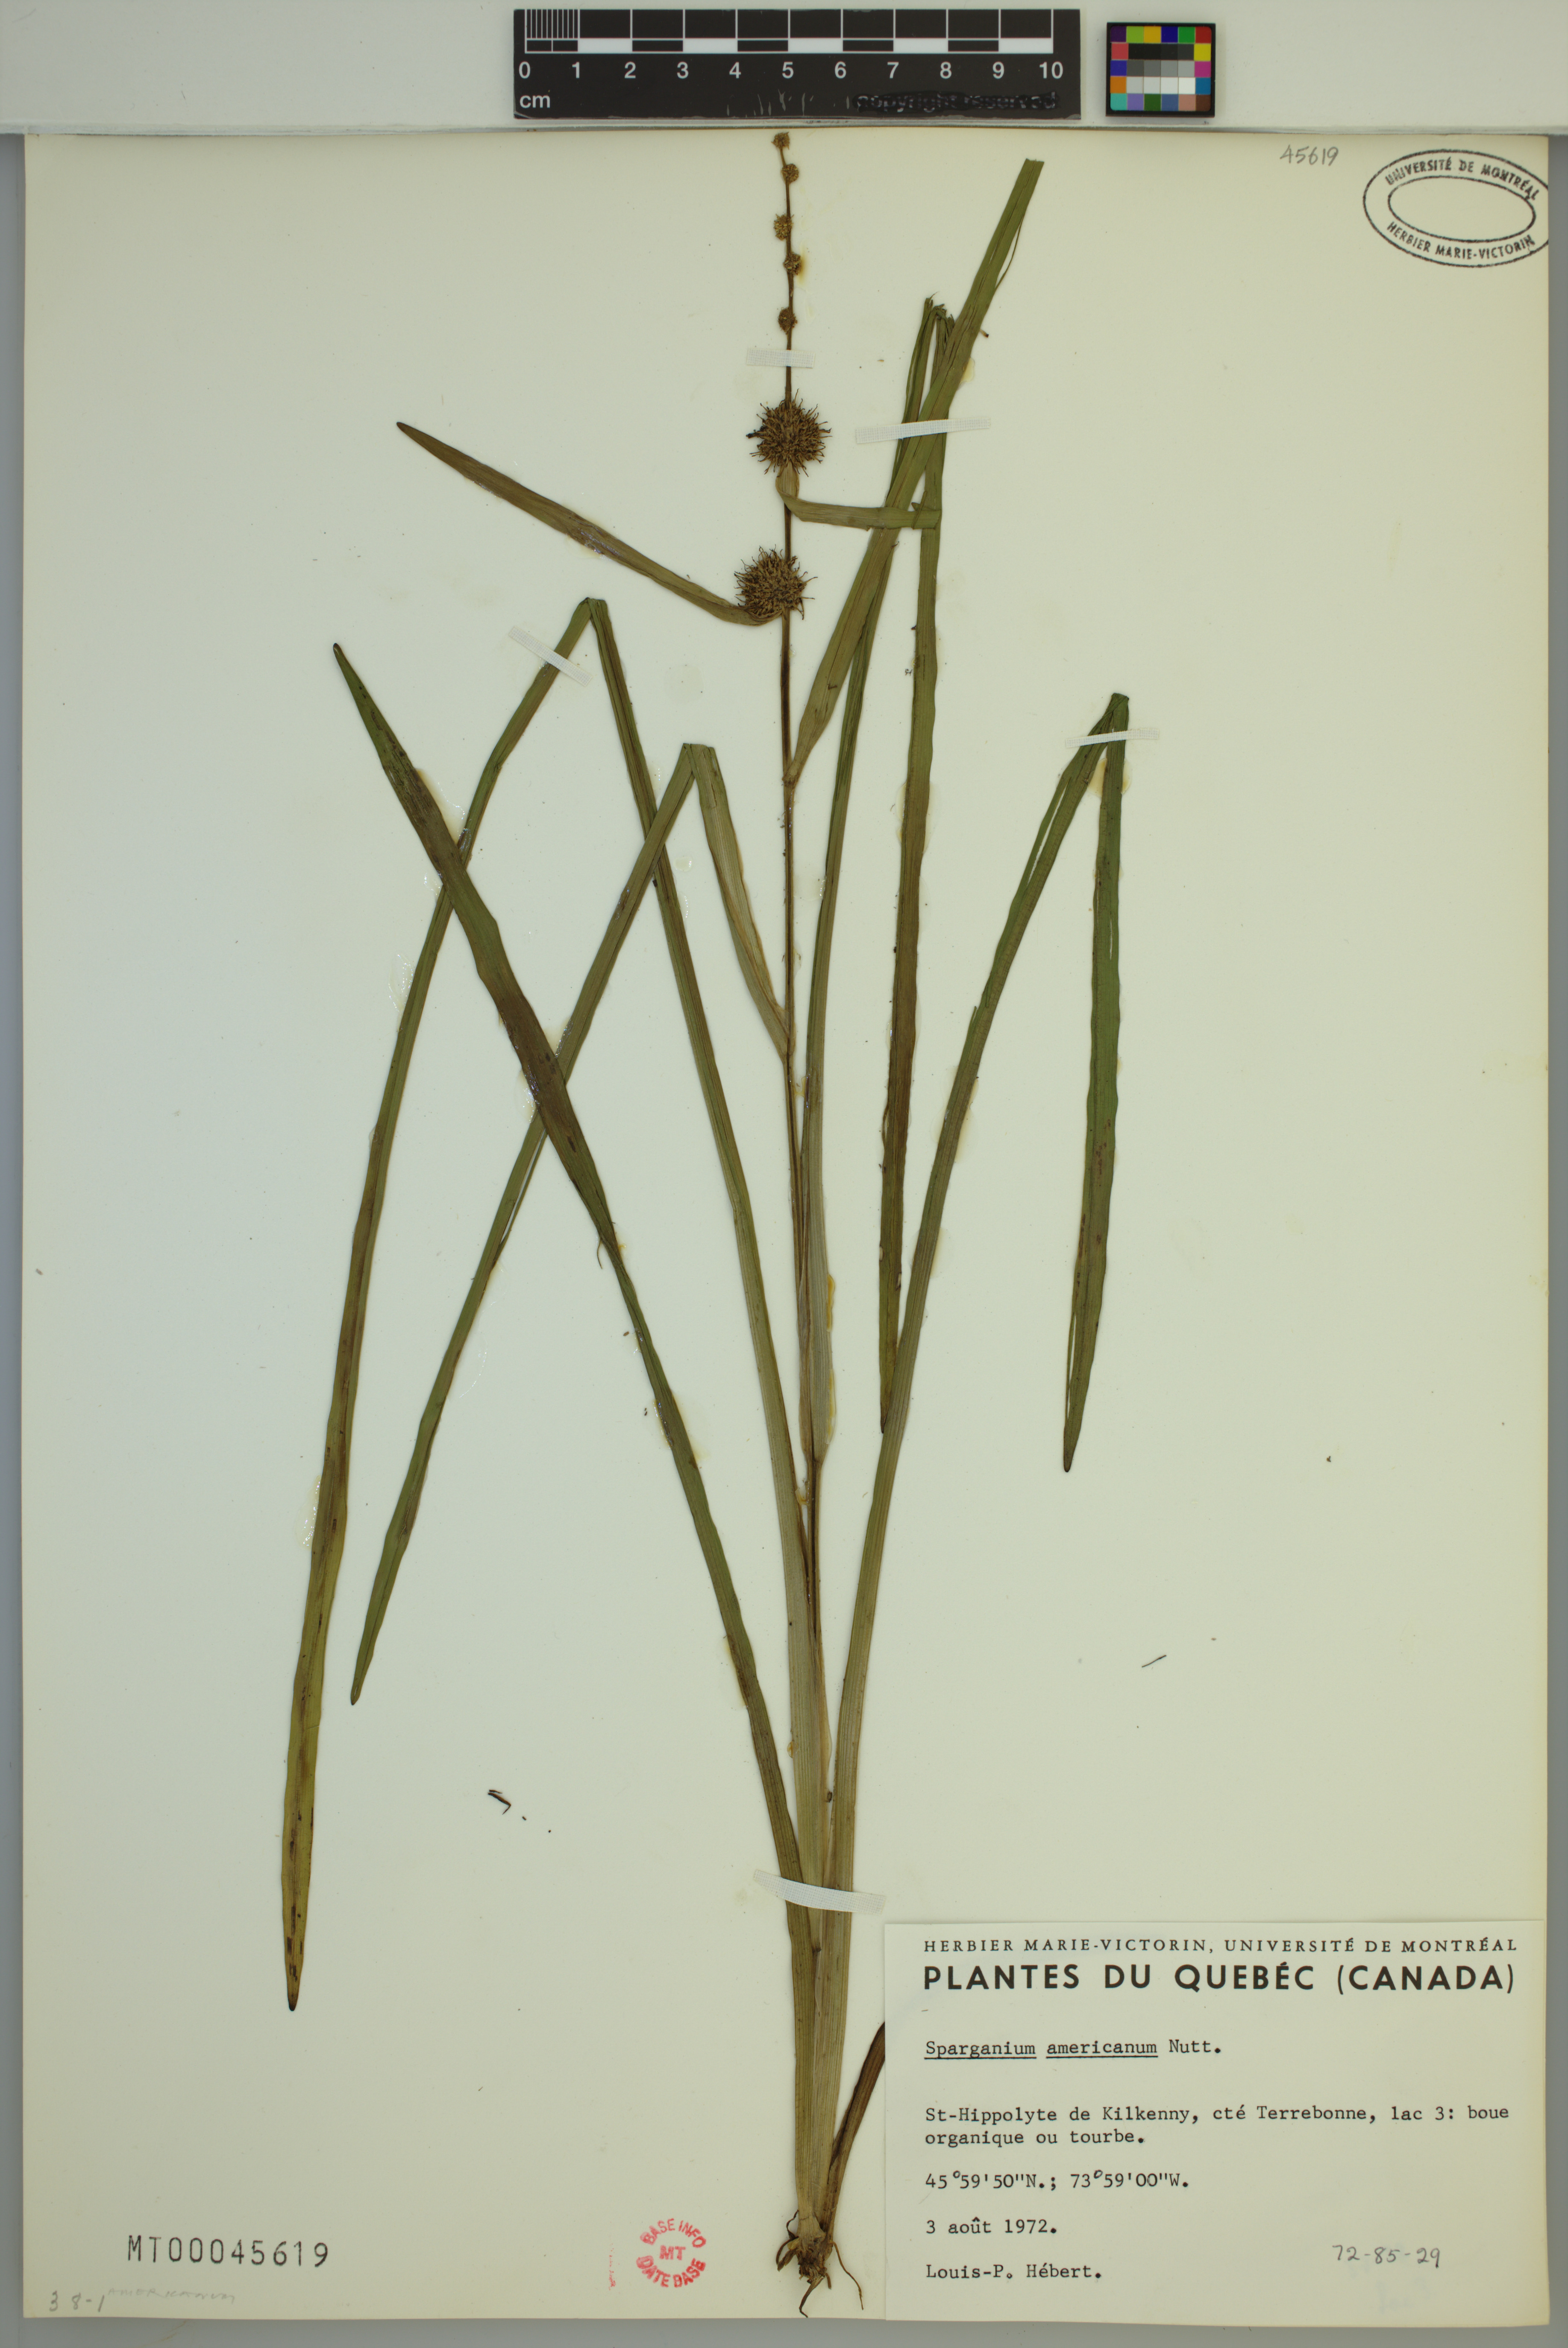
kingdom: Plantae
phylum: Tracheophyta
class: Liliopsida
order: Poales
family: Typhaceae
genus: Sparganium
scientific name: Sparganium americanum
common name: American burreed
